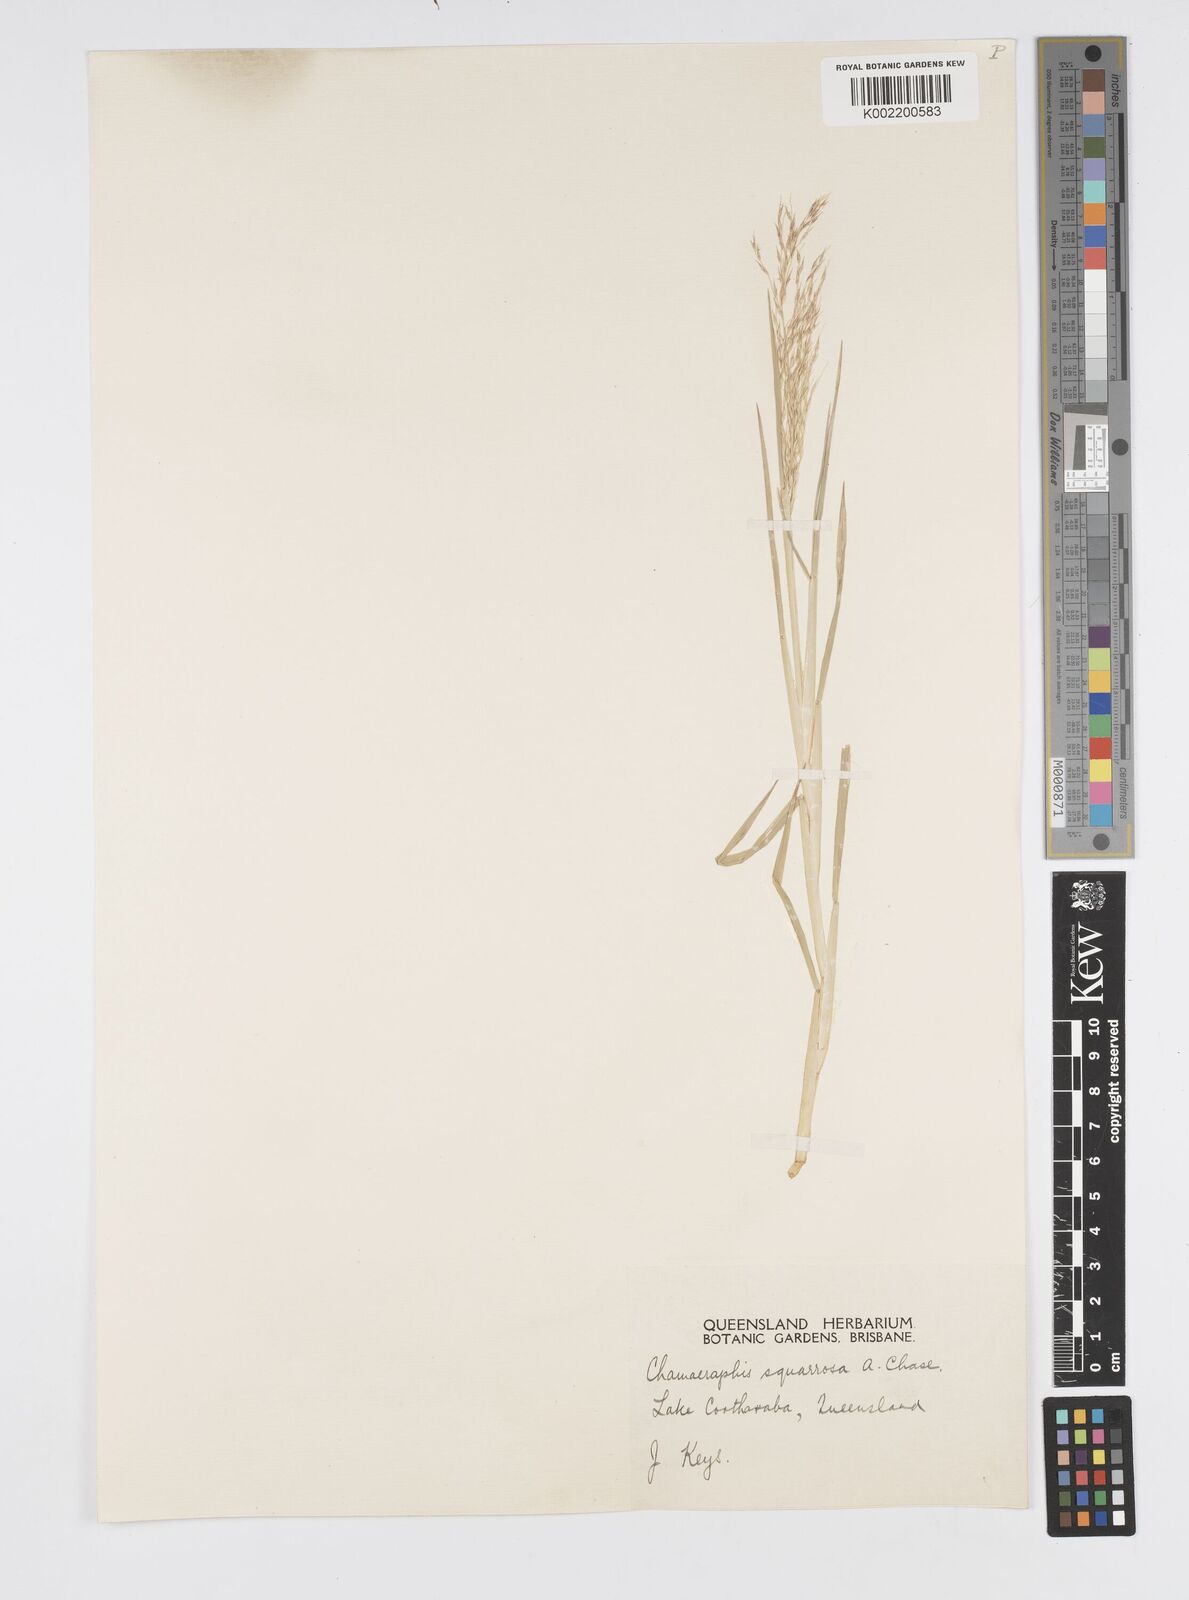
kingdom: Plantae
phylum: Tracheophyta
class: Liliopsida
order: Poales
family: Poaceae
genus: Pseudoraphis
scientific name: Pseudoraphis spinescens
